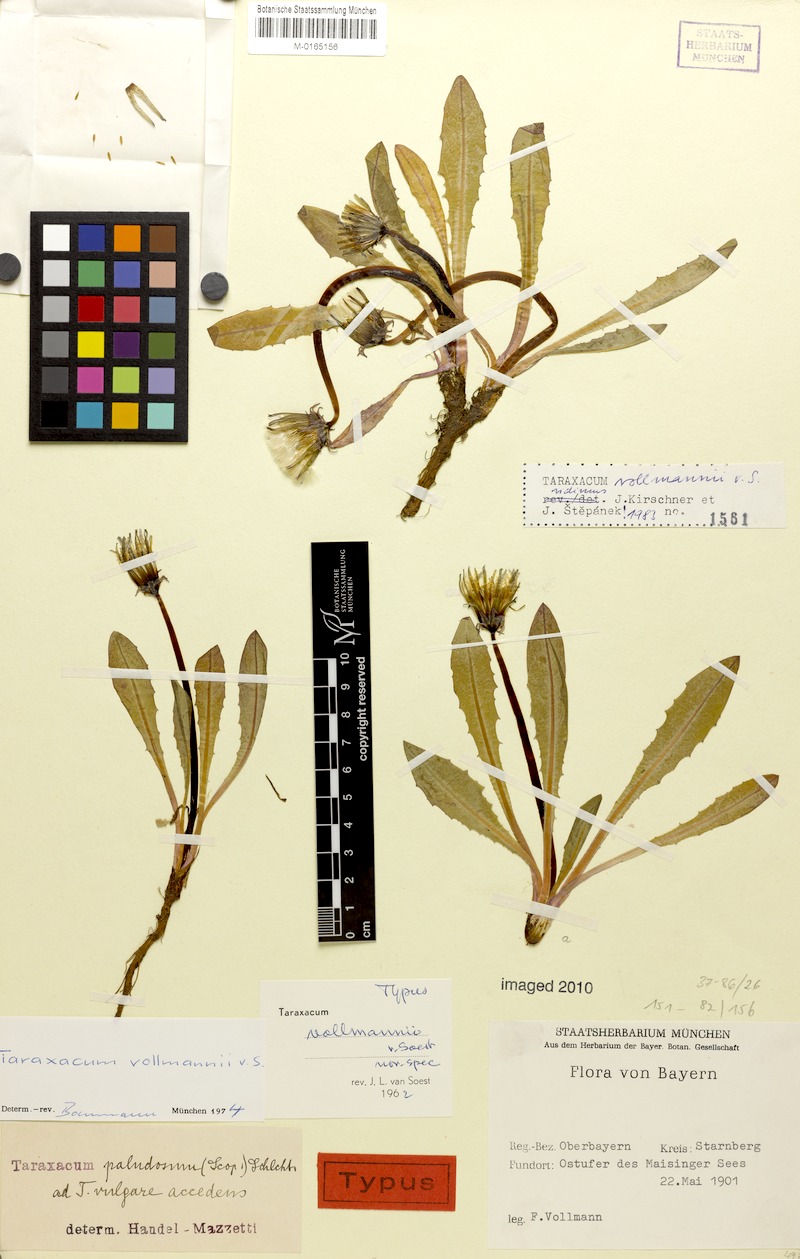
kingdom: Plantae
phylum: Tracheophyta
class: Magnoliopsida
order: Asterales
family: Asteraceae
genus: Taraxacum
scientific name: Taraxacum turfosum
